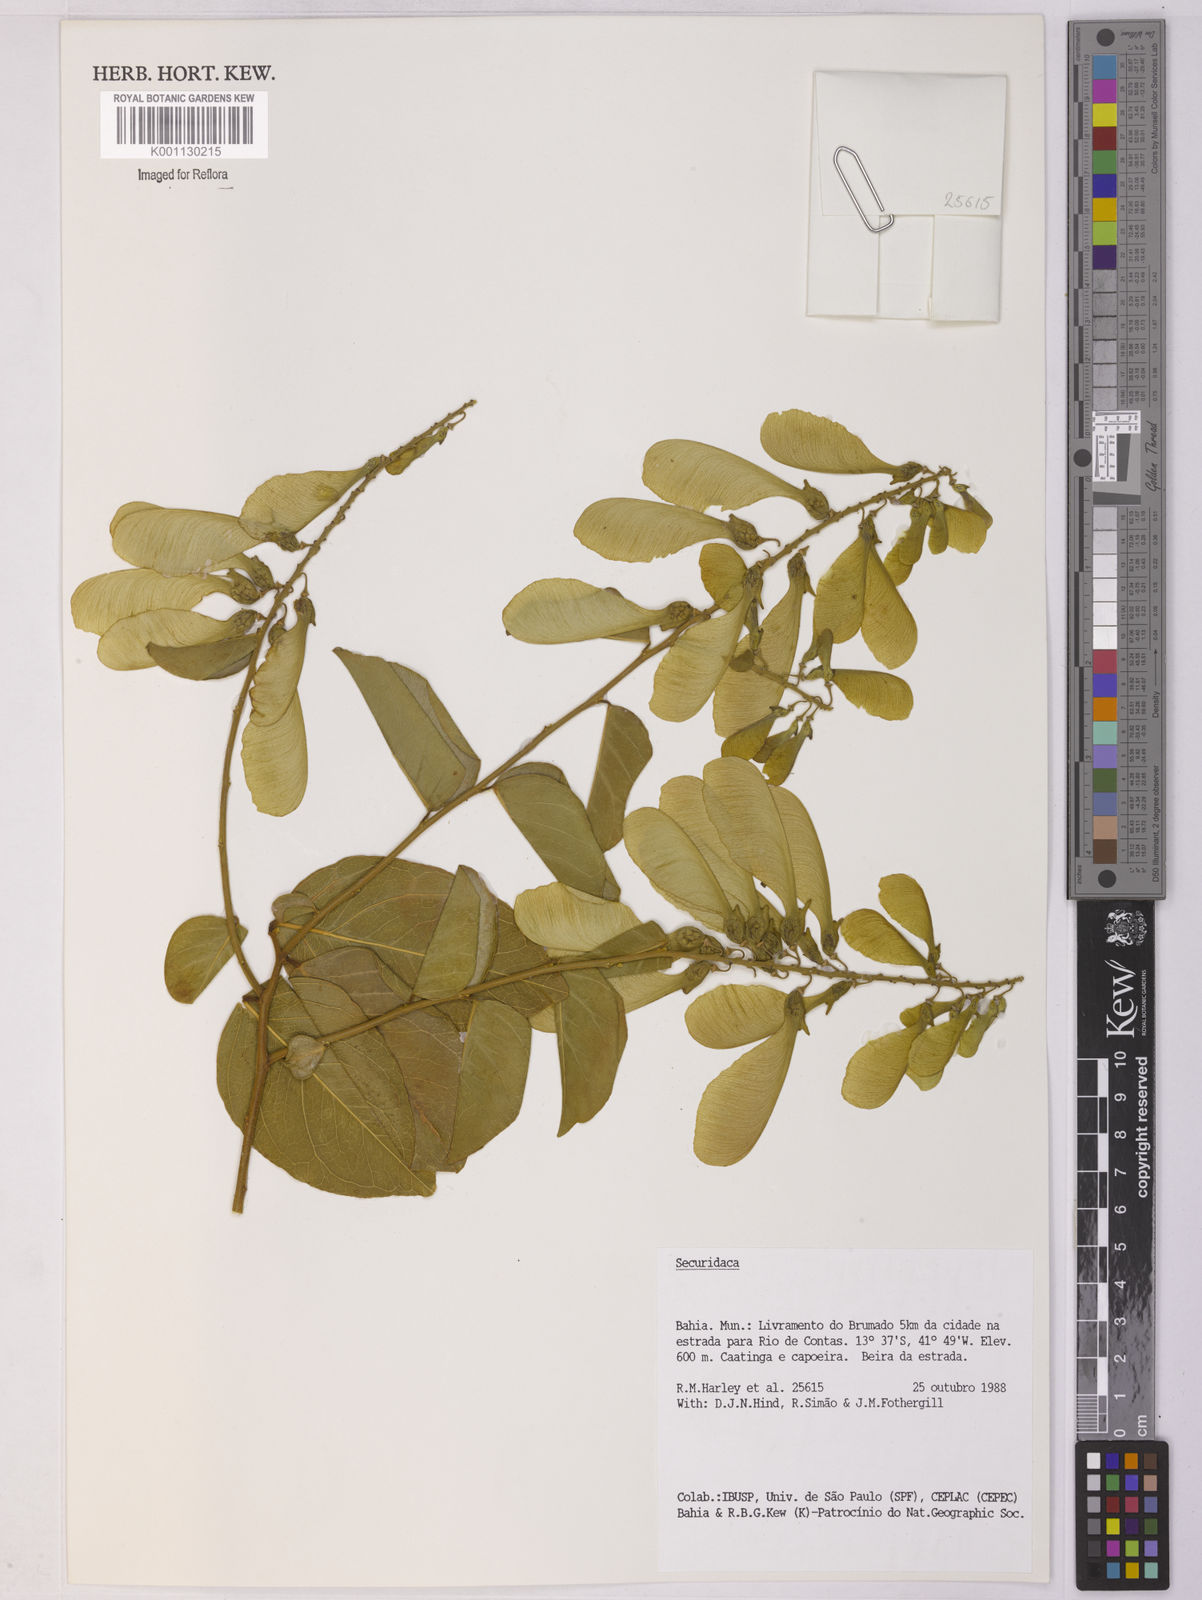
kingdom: Plantae
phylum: Tracheophyta
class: Magnoliopsida
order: Fabales
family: Polygalaceae
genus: Securidaca
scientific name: Securidaca
